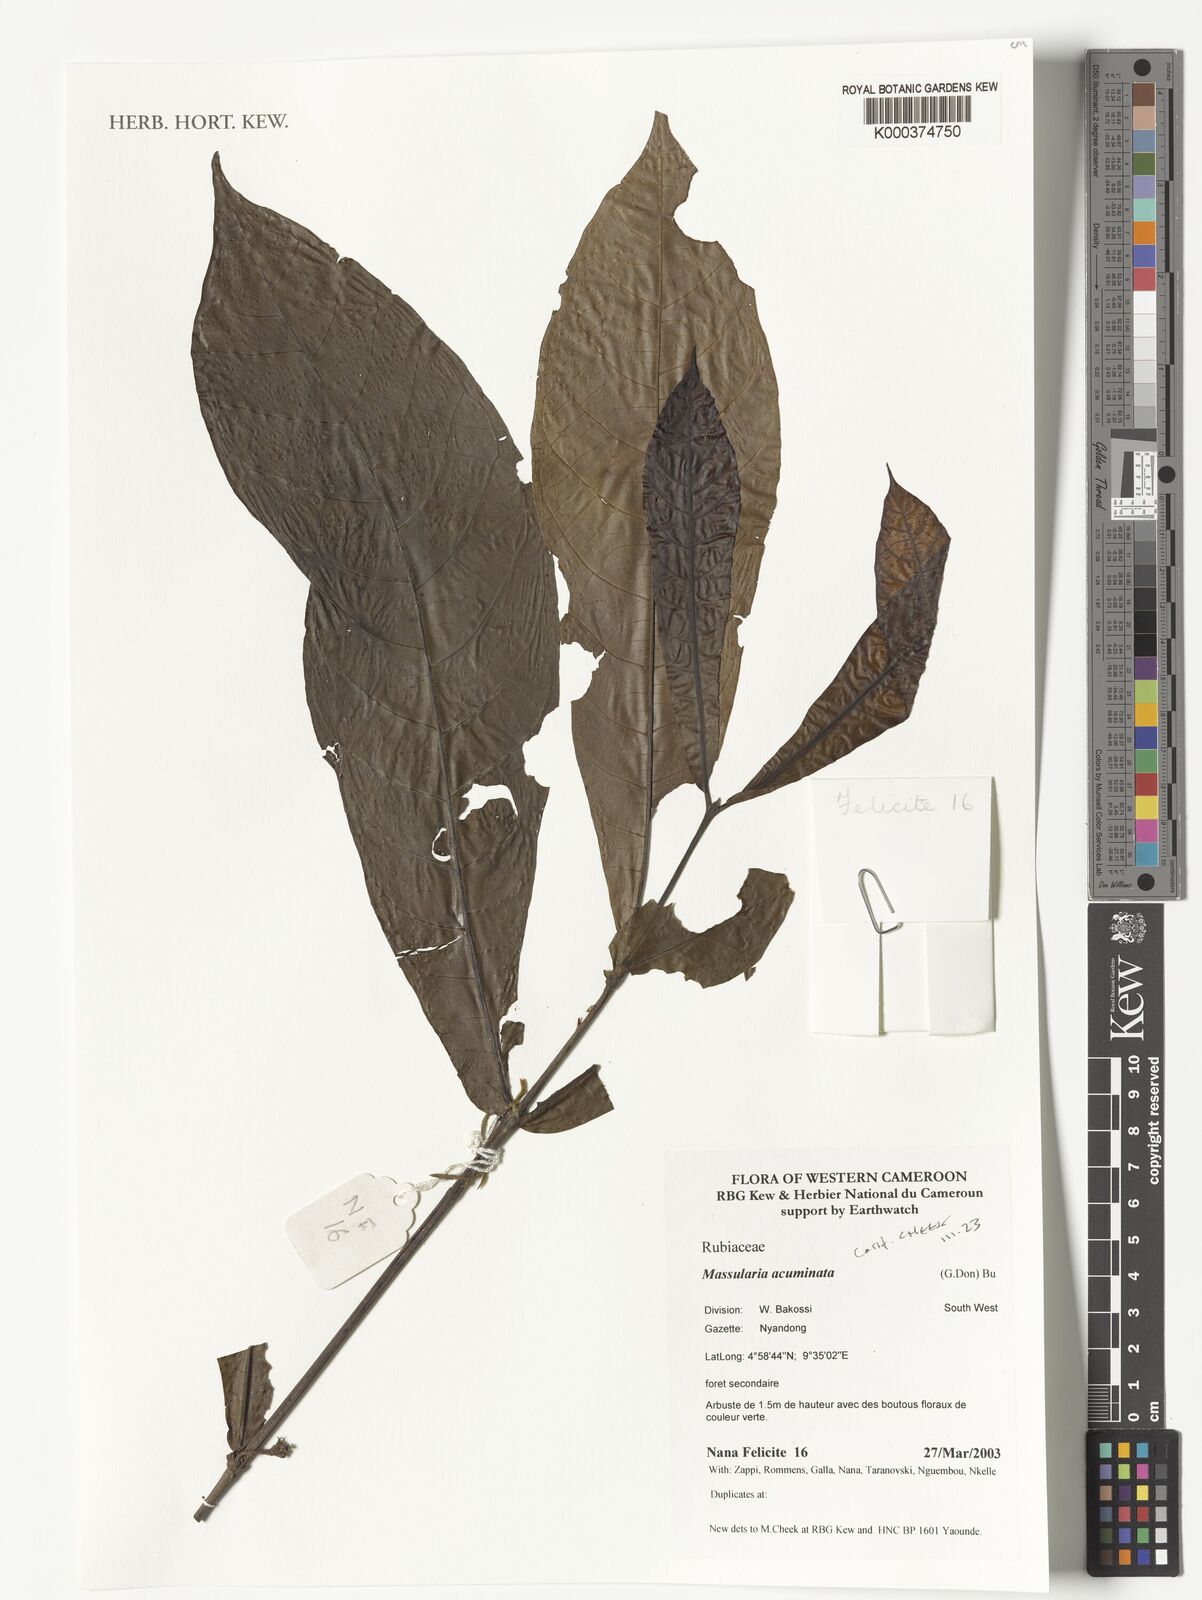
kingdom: Plantae
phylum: Tracheophyta
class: Magnoliopsida
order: Gentianales
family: Rubiaceae
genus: Massularia
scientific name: Massularia acuminata
